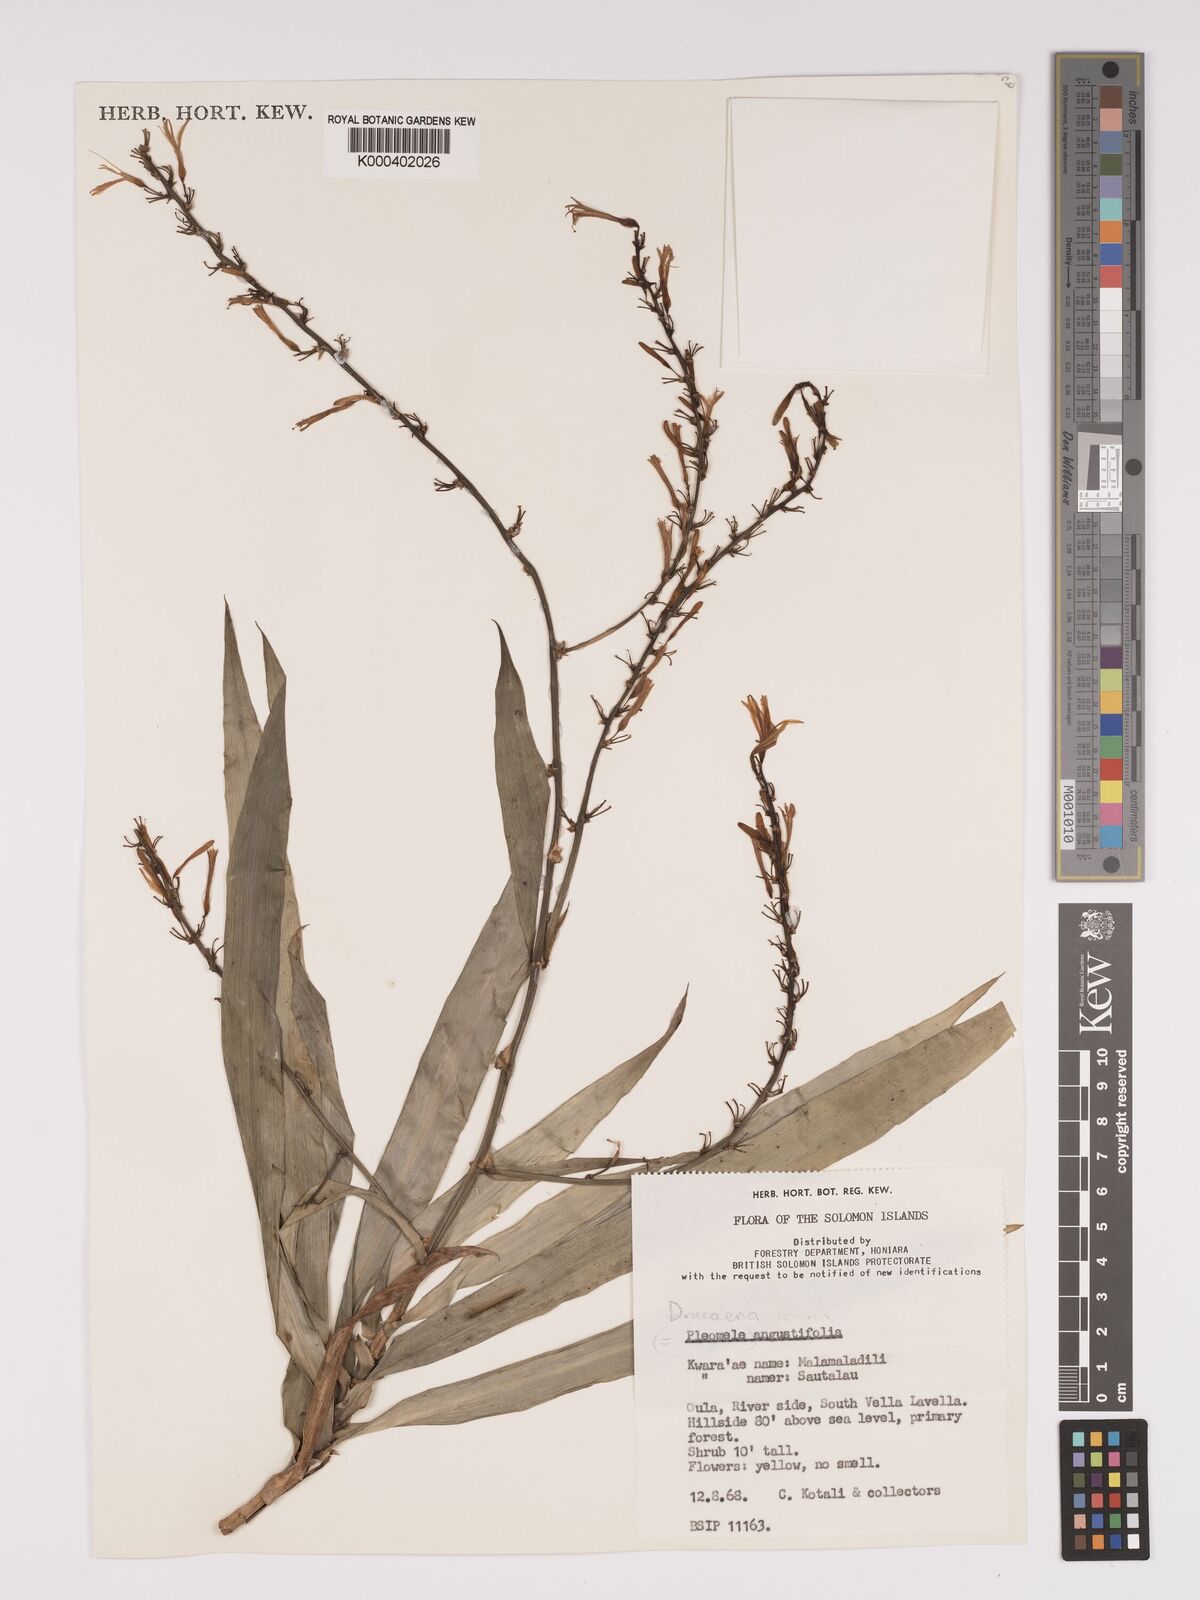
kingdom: Plantae
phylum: Tracheophyta
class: Liliopsida
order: Asparagales
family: Asparagaceae
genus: Dracaena
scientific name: Dracaena angustifolia
